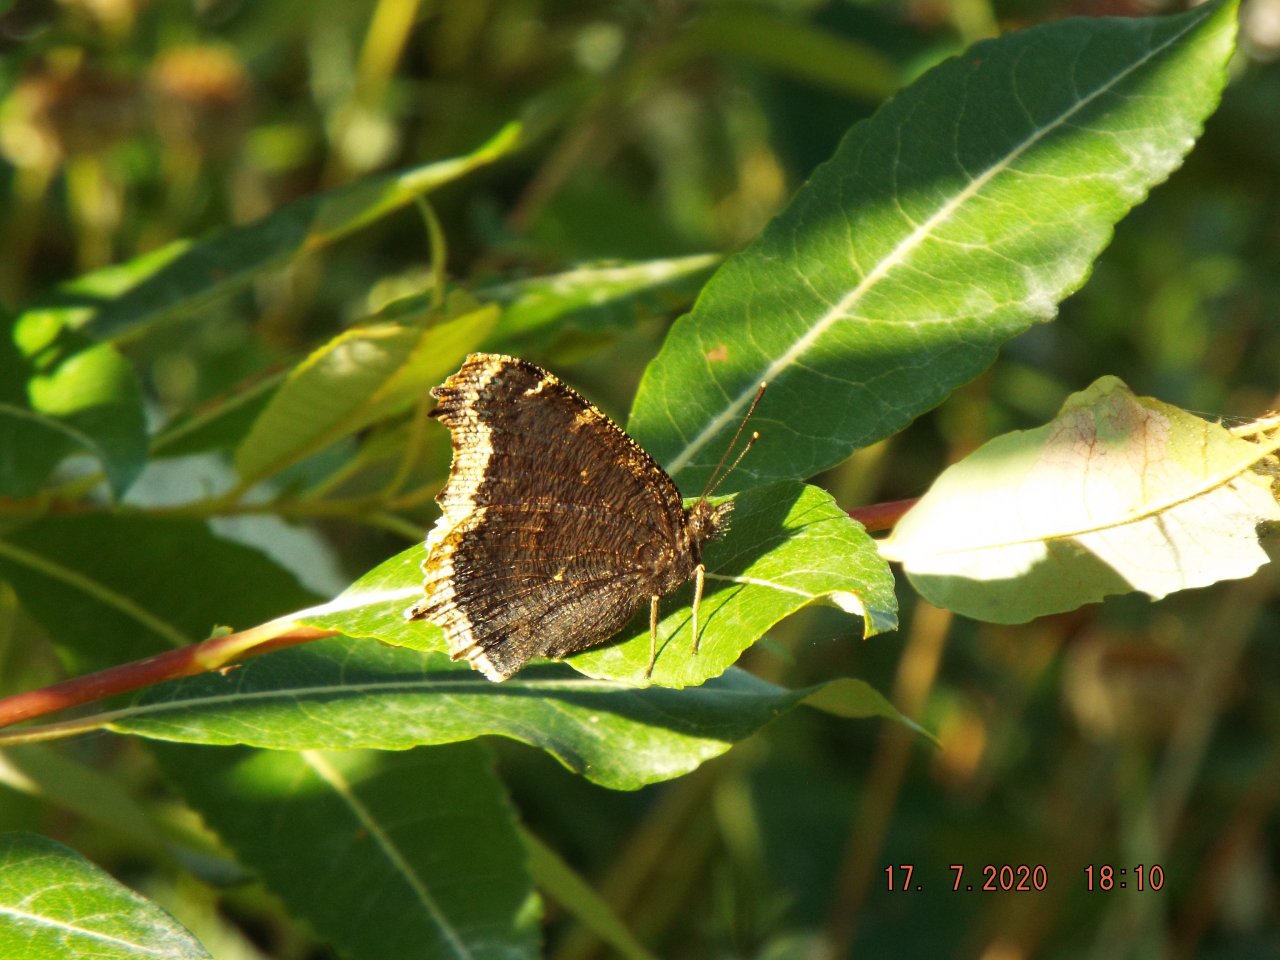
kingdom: Animalia
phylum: Arthropoda
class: Insecta
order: Lepidoptera
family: Nymphalidae
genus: Nymphalis
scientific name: Nymphalis antiopa
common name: Mourning Cloak
